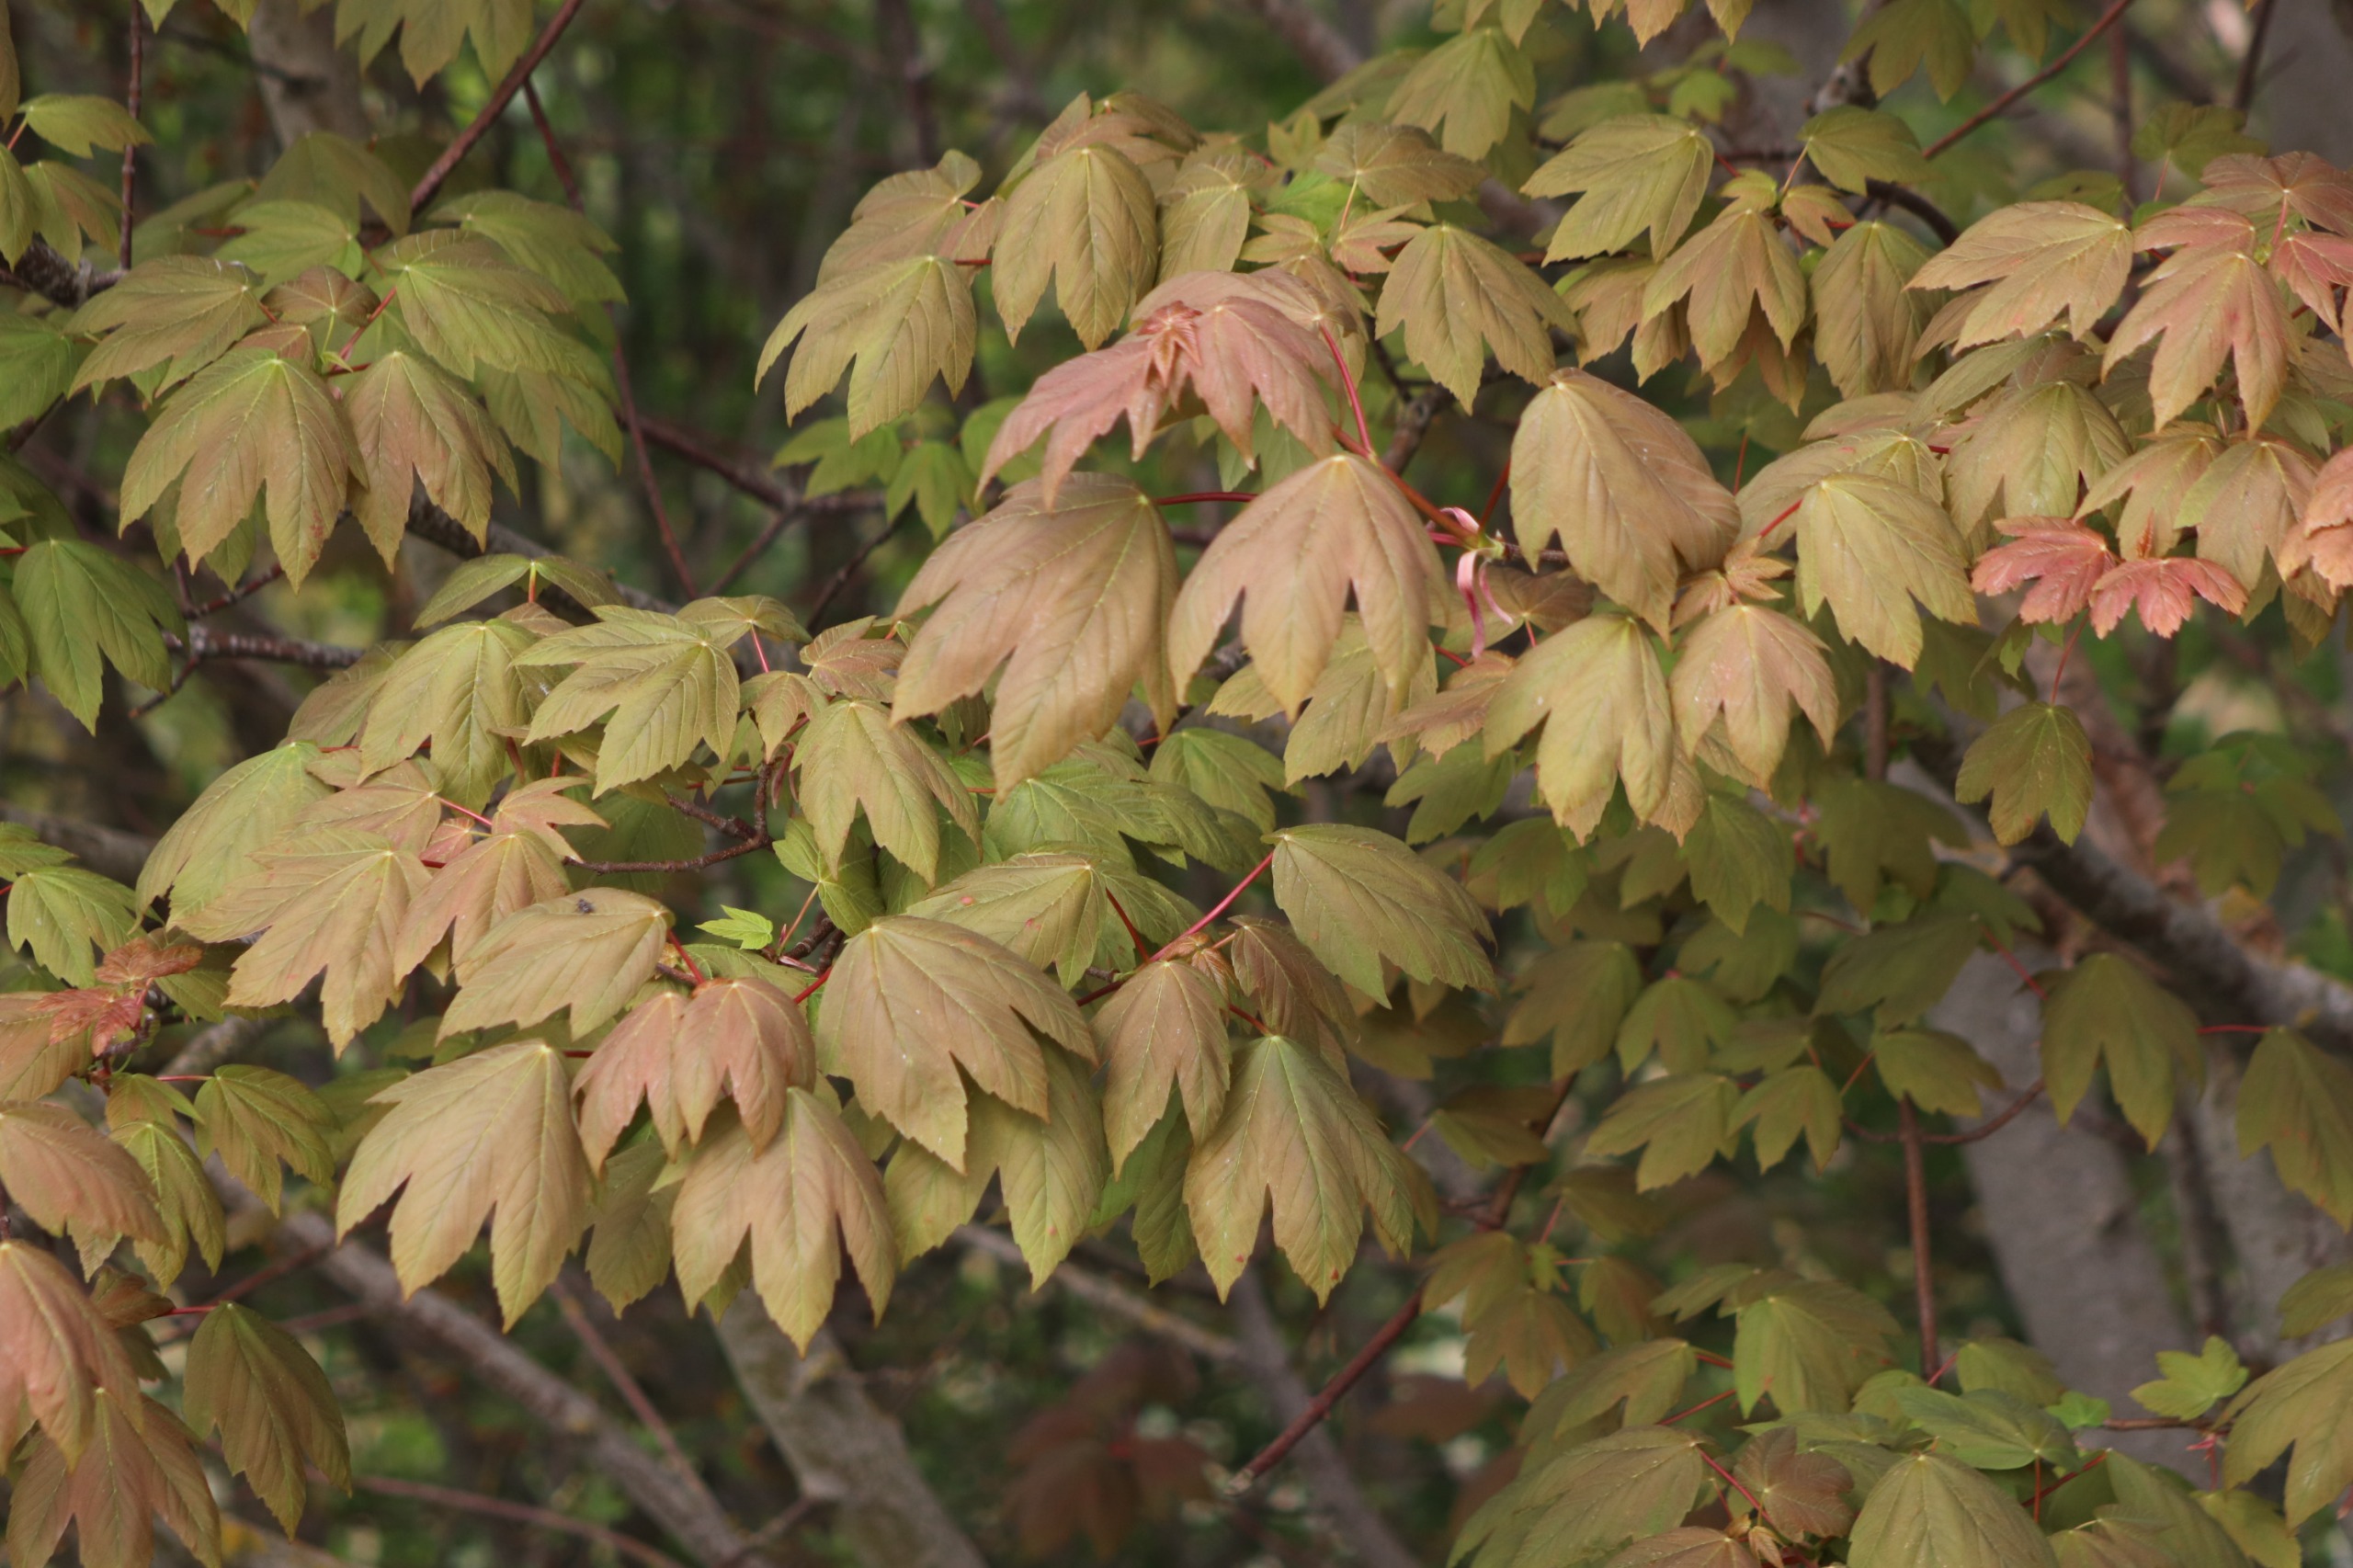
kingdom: Plantae
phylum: Tracheophyta
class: Magnoliopsida
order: Sapindales
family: Sapindaceae
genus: Acer
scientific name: Acer pseudoplatanus
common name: Ahorn
